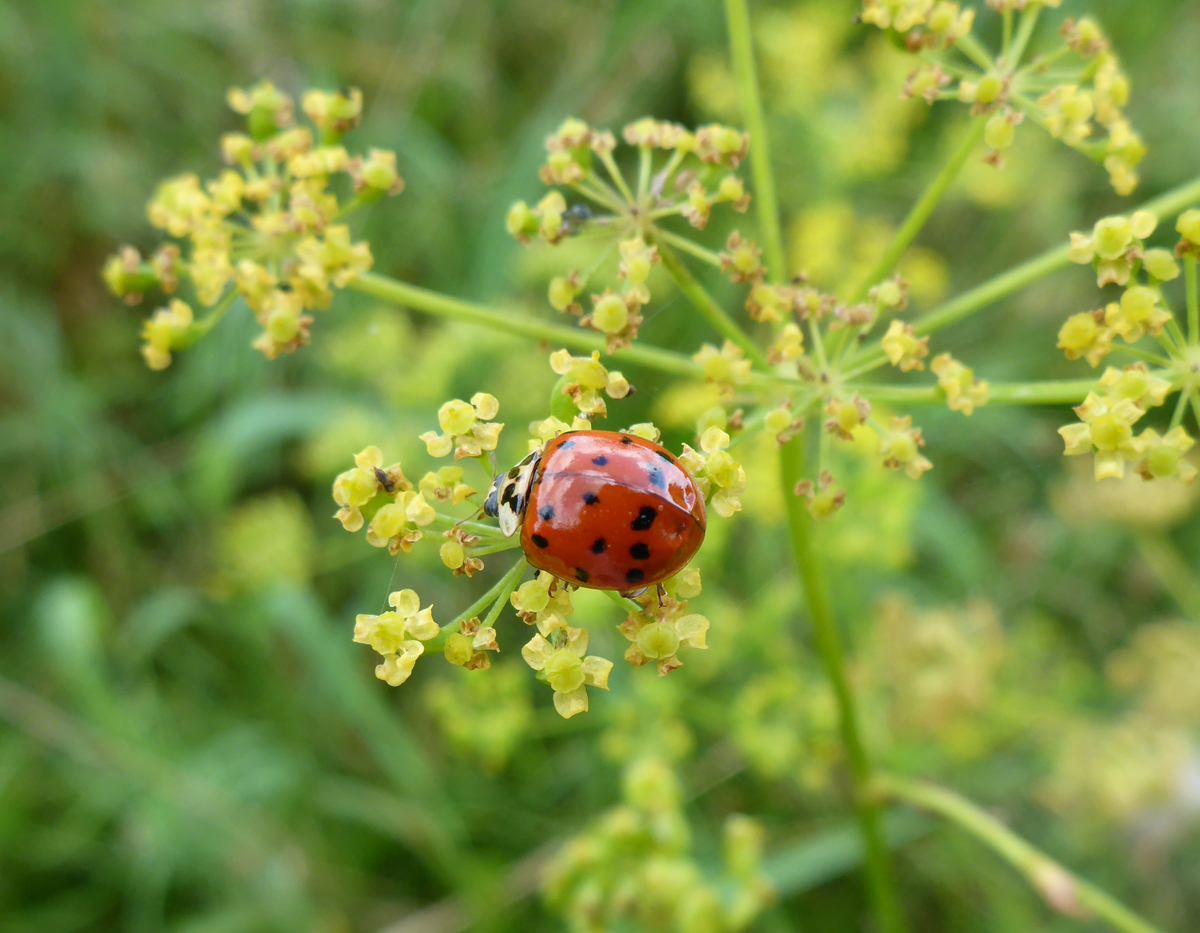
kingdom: Animalia
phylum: Arthropoda
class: Insecta
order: Coleoptera
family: Coccinellidae
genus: Harmonia
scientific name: Harmonia axyridis
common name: Harlequin ladybird
